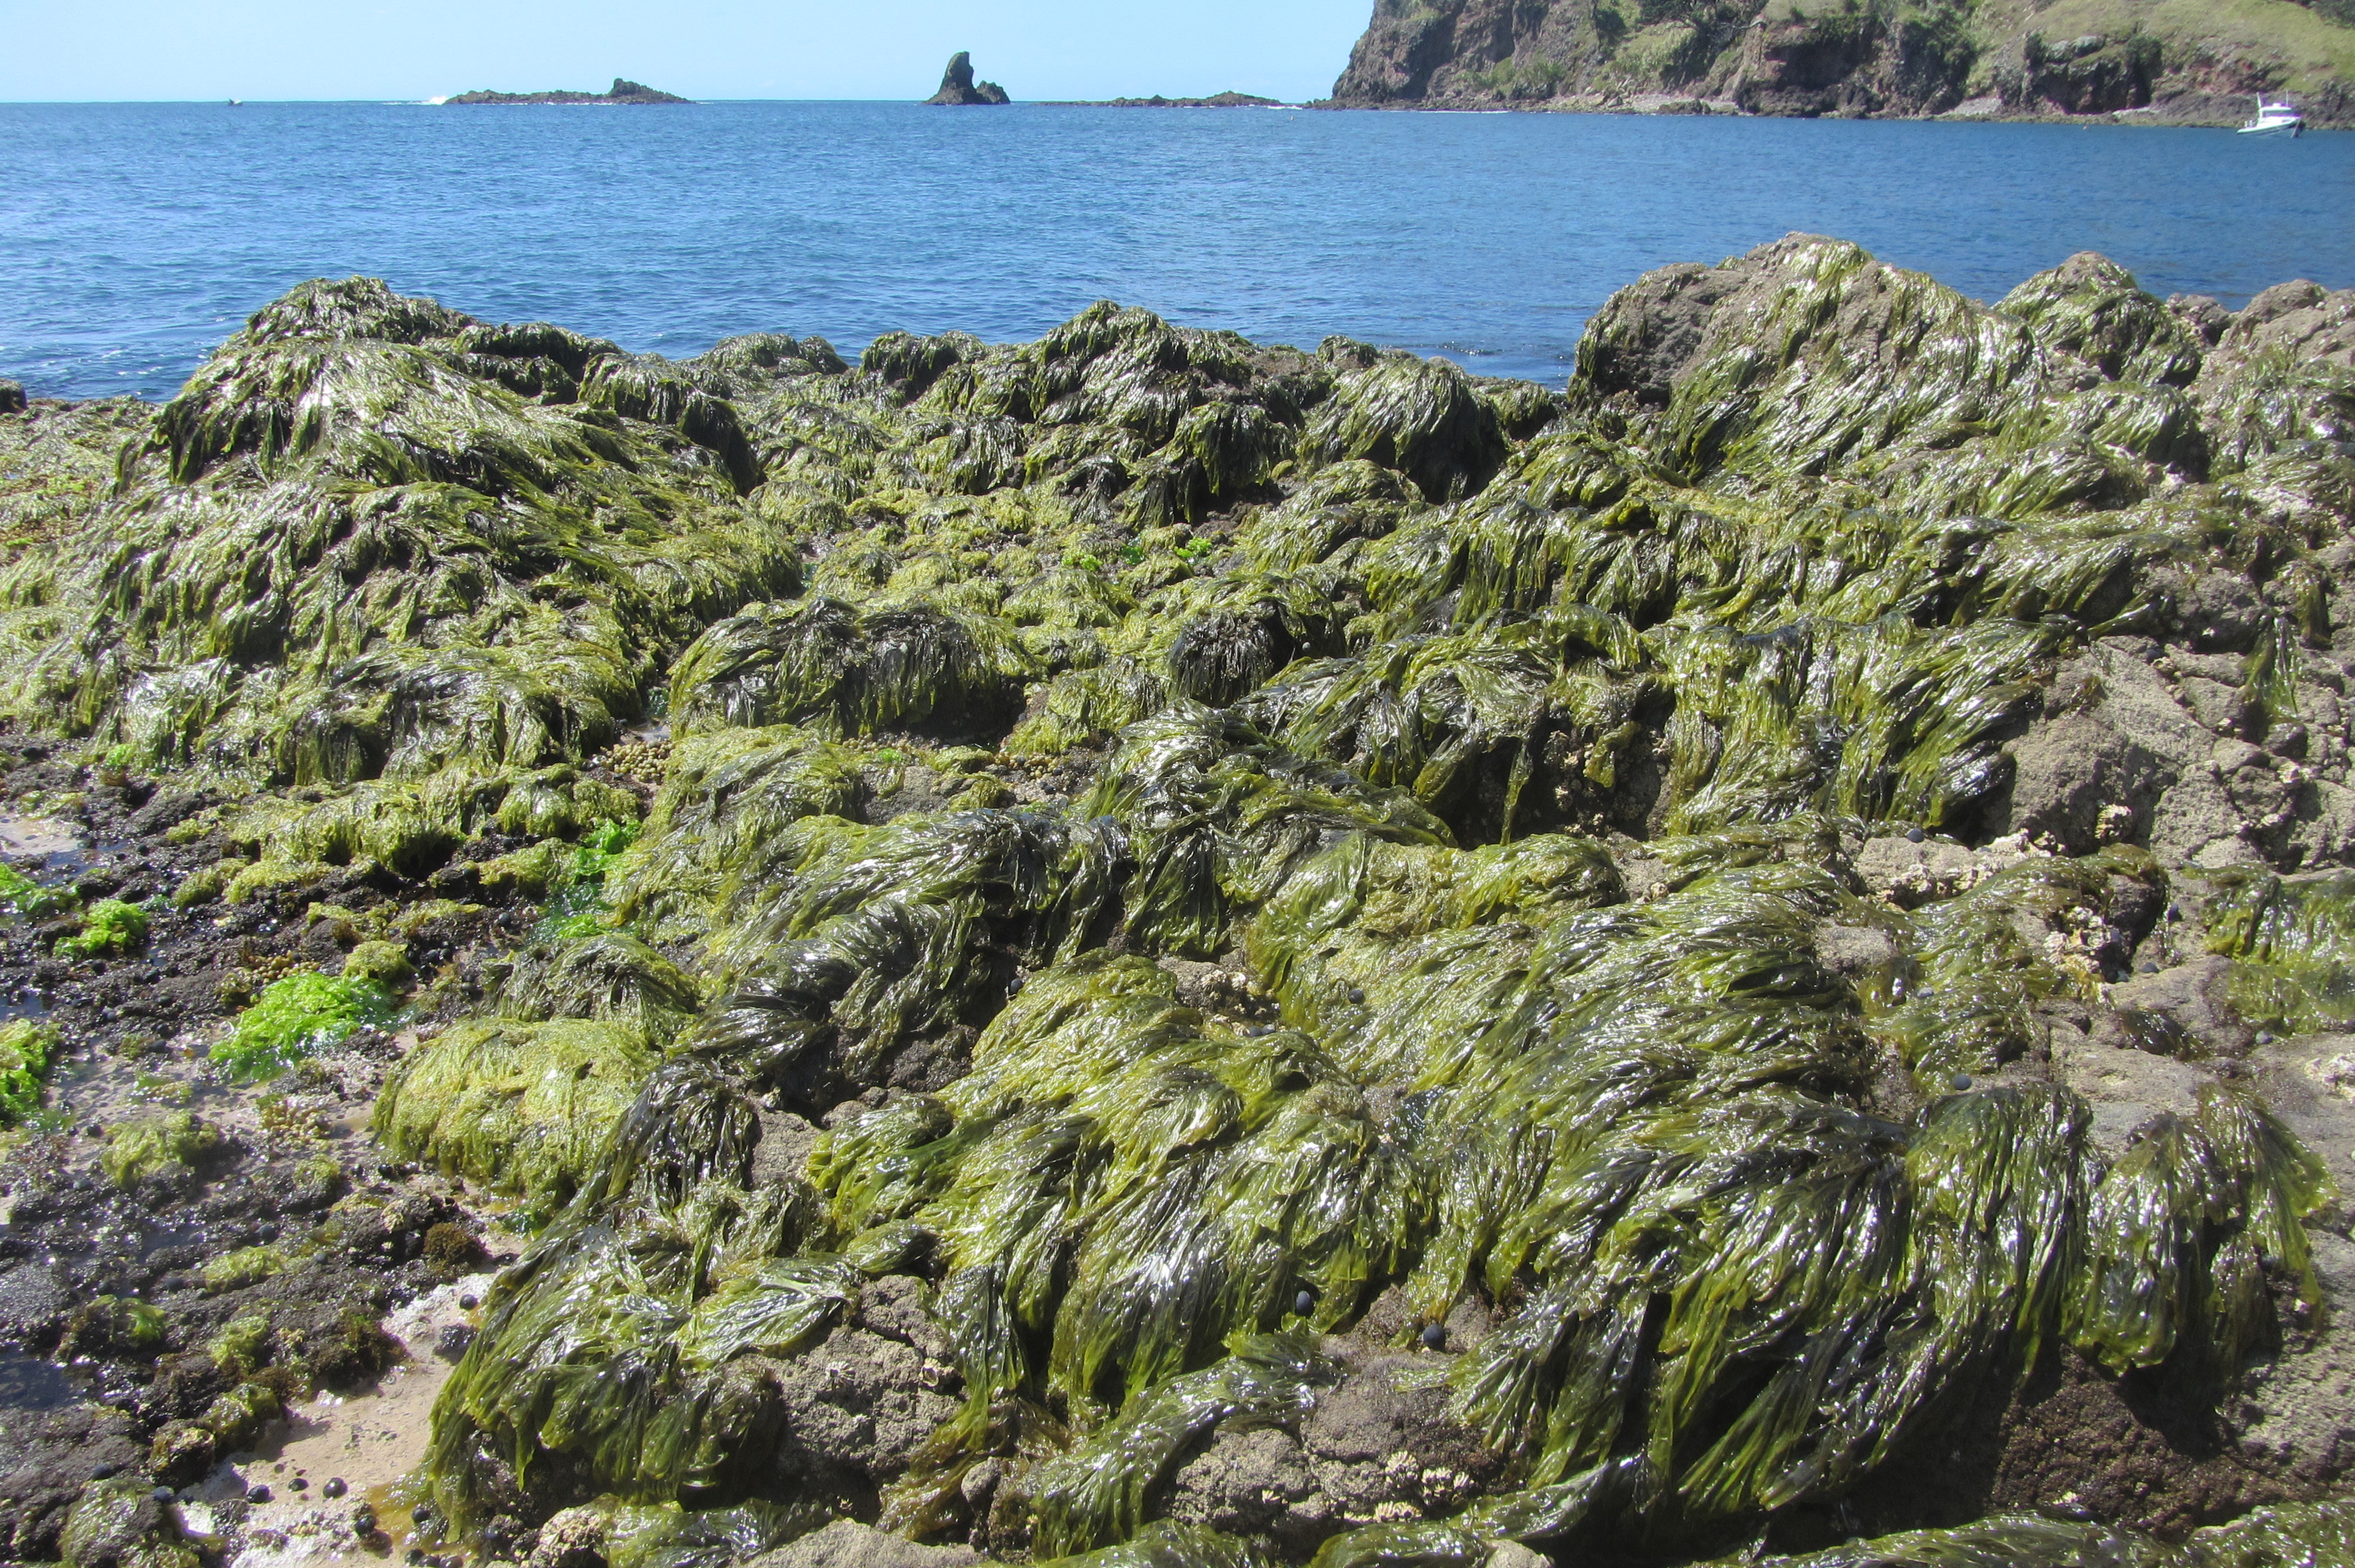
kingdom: Plantae
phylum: Rhodophyta
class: Bangiophyceae
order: Bangiales
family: Bangiaceae
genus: Pyropia
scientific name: Pyropia plicata
